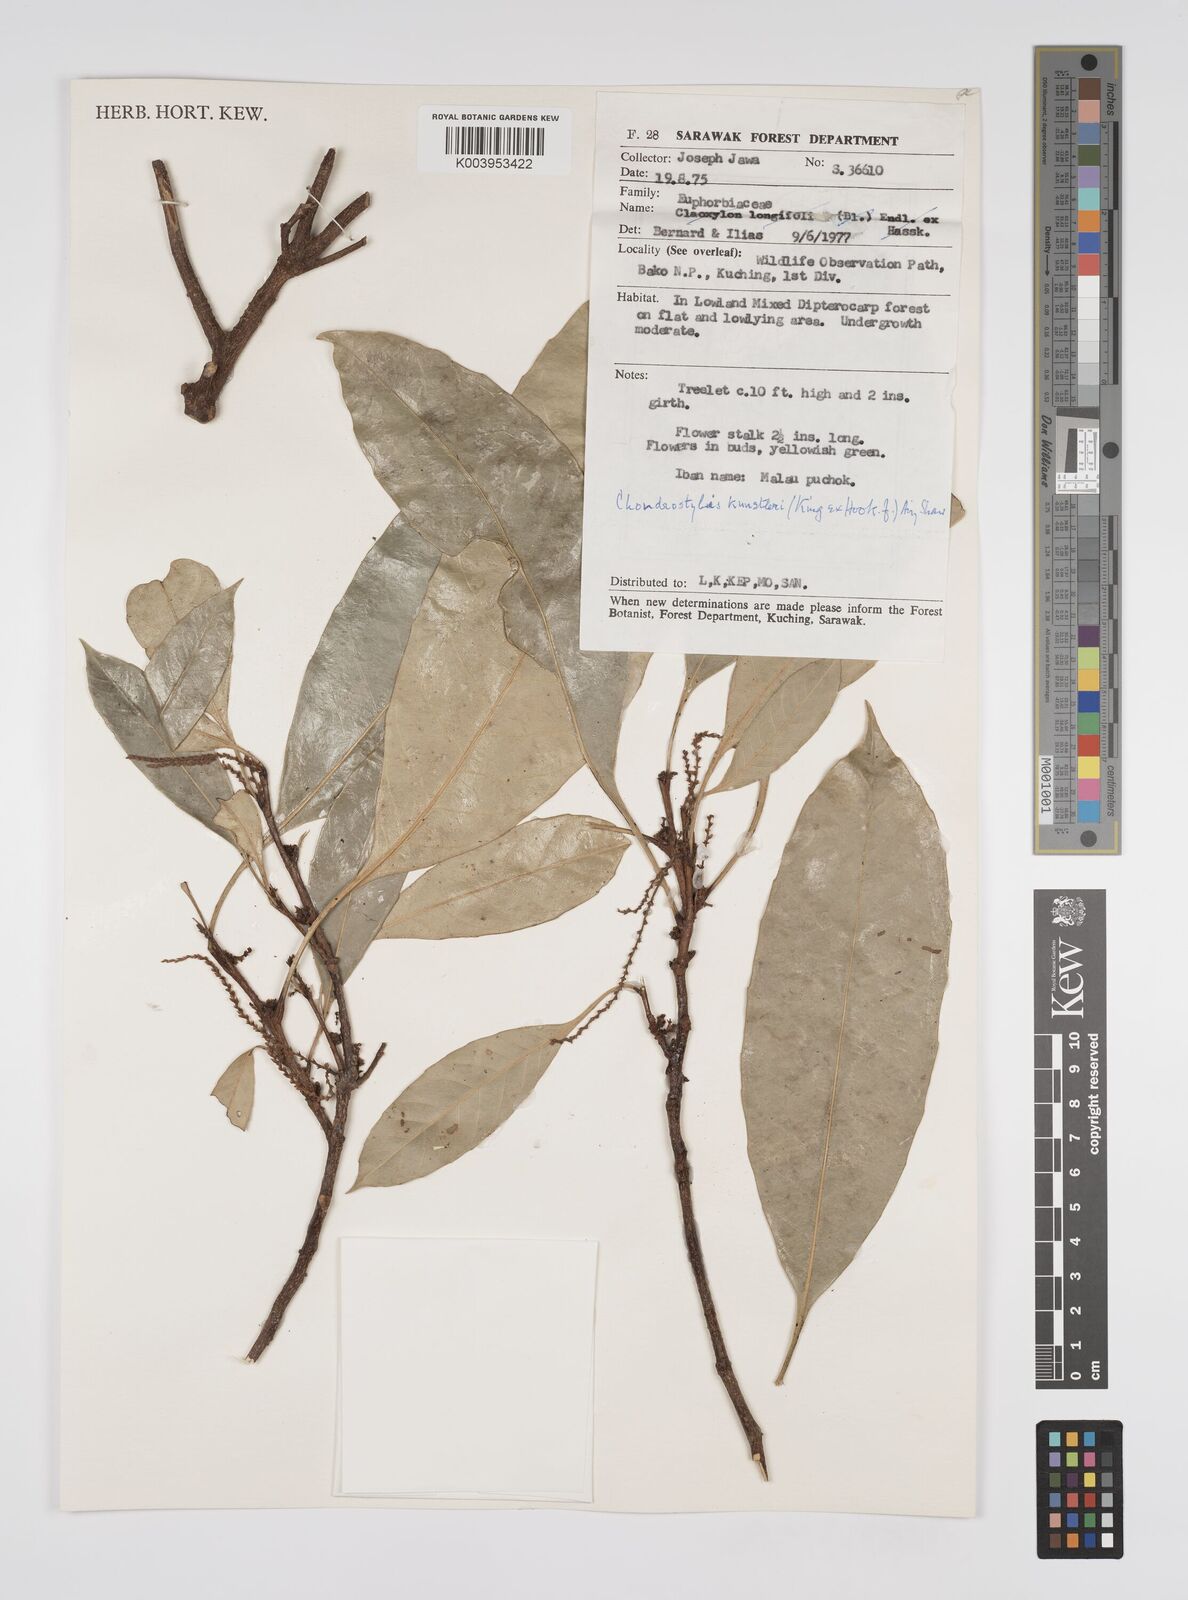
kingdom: Plantae
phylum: Tracheophyta
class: Magnoliopsida
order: Malpighiales
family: Euphorbiaceae
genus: Chondrostylis
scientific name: Chondrostylis kunstleri
